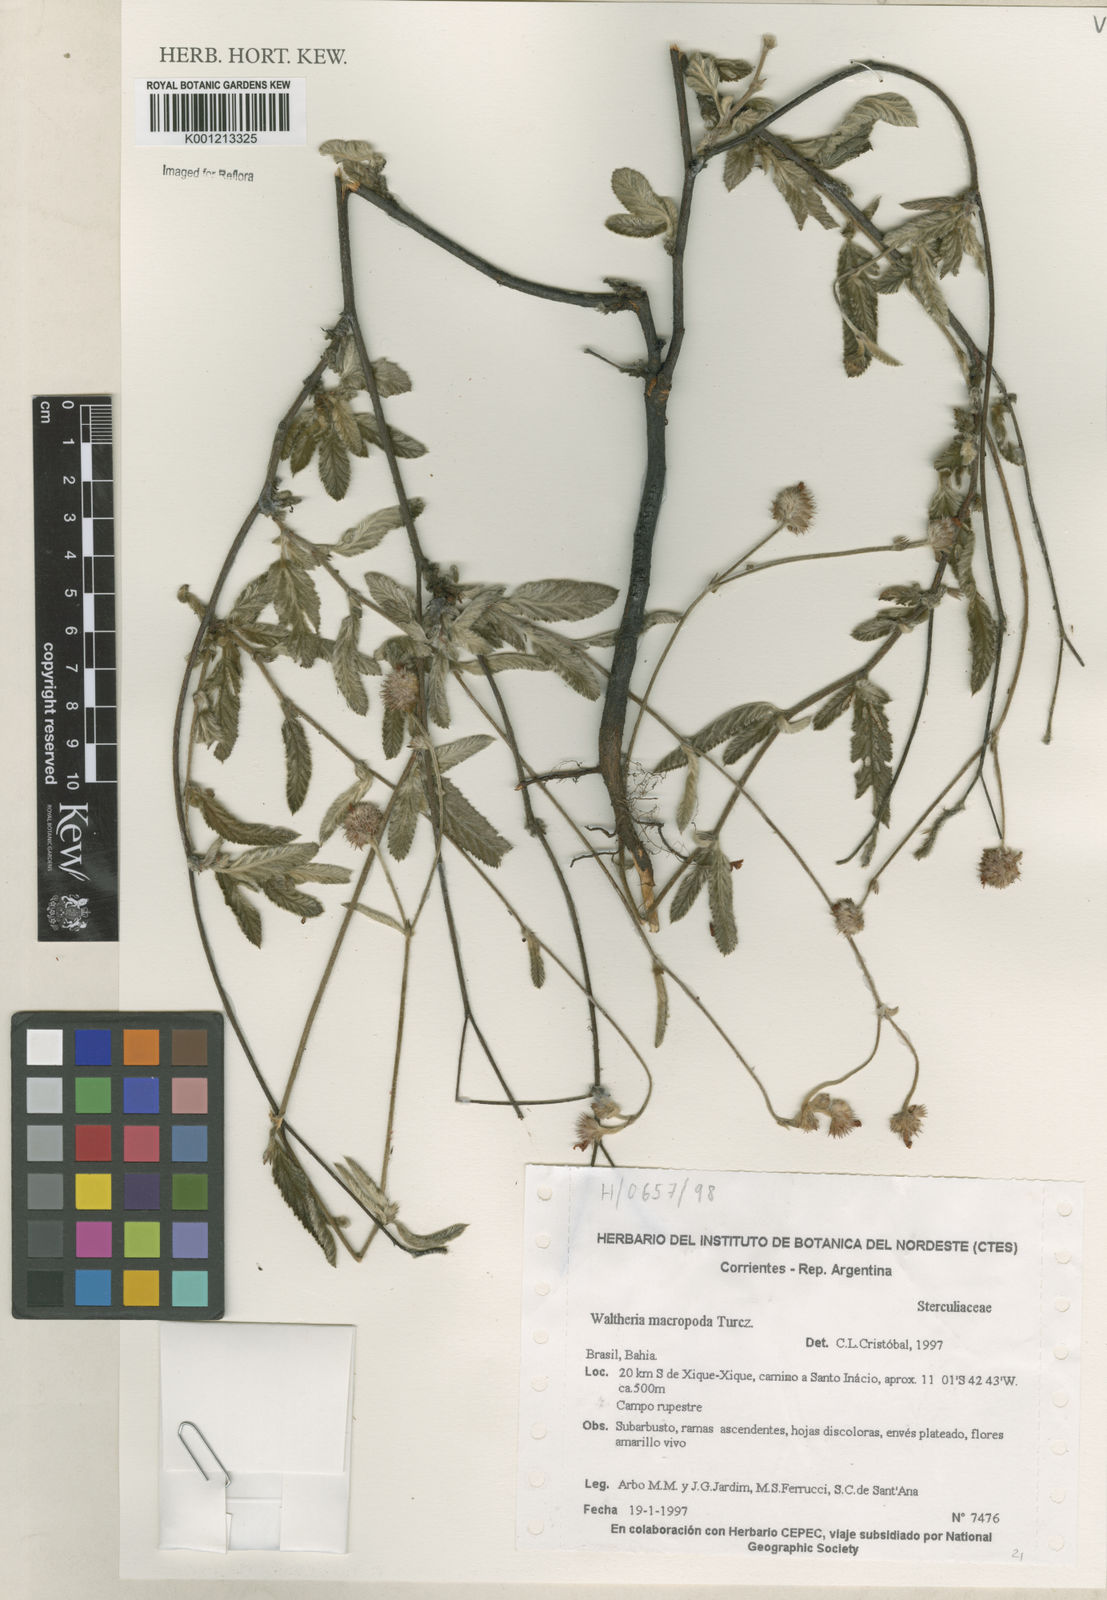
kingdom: Plantae
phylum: Tracheophyta
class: Magnoliopsida
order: Malvales
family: Malvaceae
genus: Waltheria
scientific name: Waltheria bracteosa
